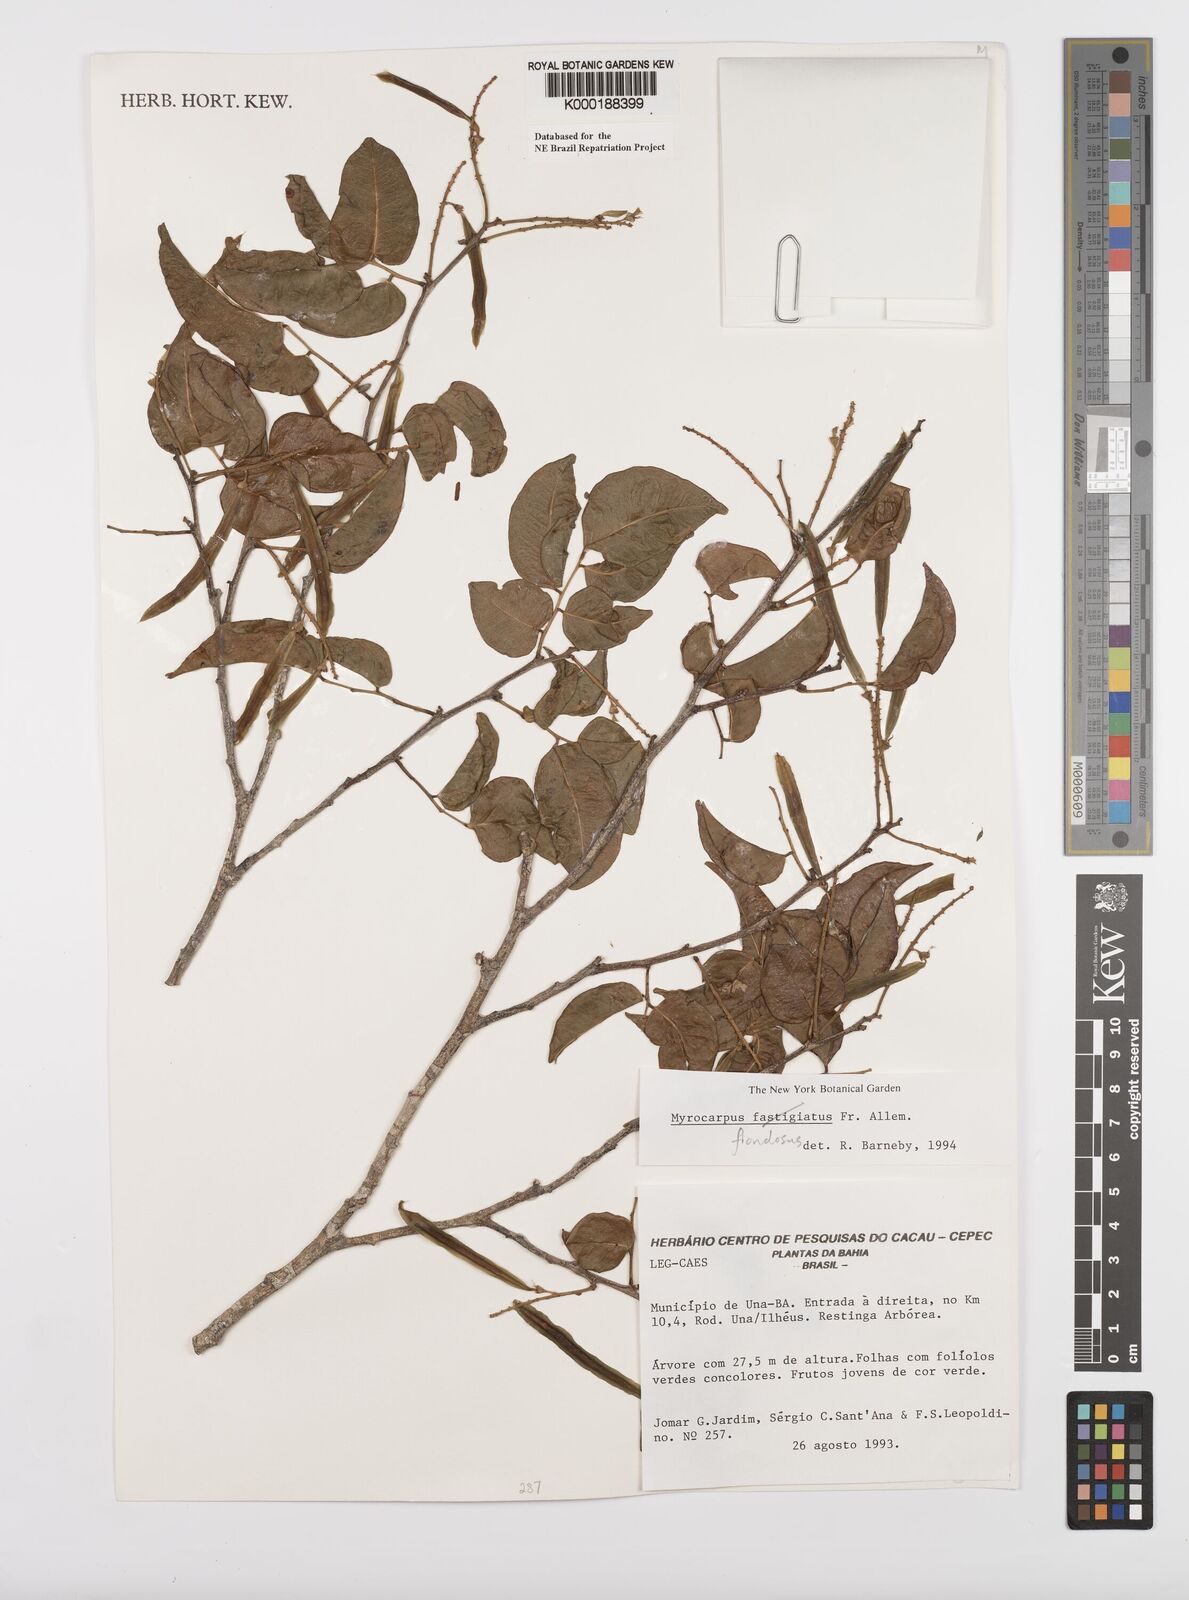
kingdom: Plantae
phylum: Tracheophyta
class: Magnoliopsida
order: Fabales
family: Fabaceae
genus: Myrocarpus
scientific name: Myrocarpus frondosus
